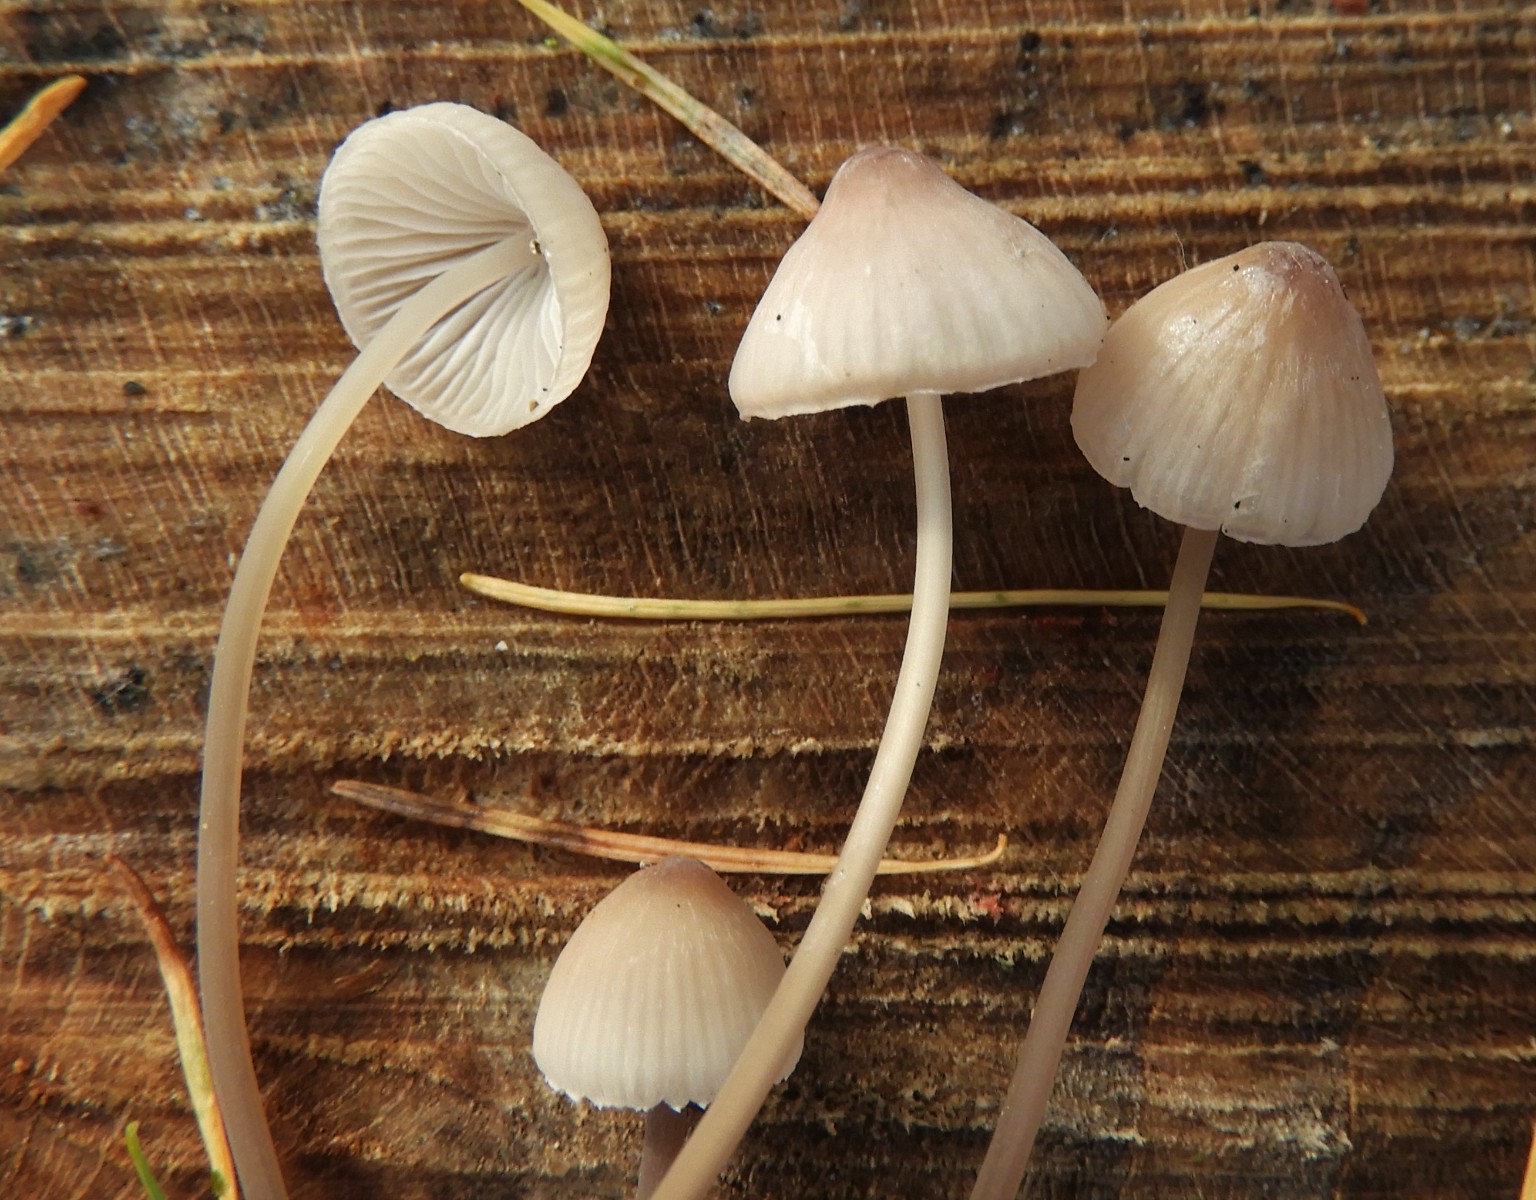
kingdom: Fungi
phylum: Basidiomycota
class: Agaricomycetes
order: Agaricales
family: Mycenaceae
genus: Mycena
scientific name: Mycena metata
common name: rødlig huesvamp
